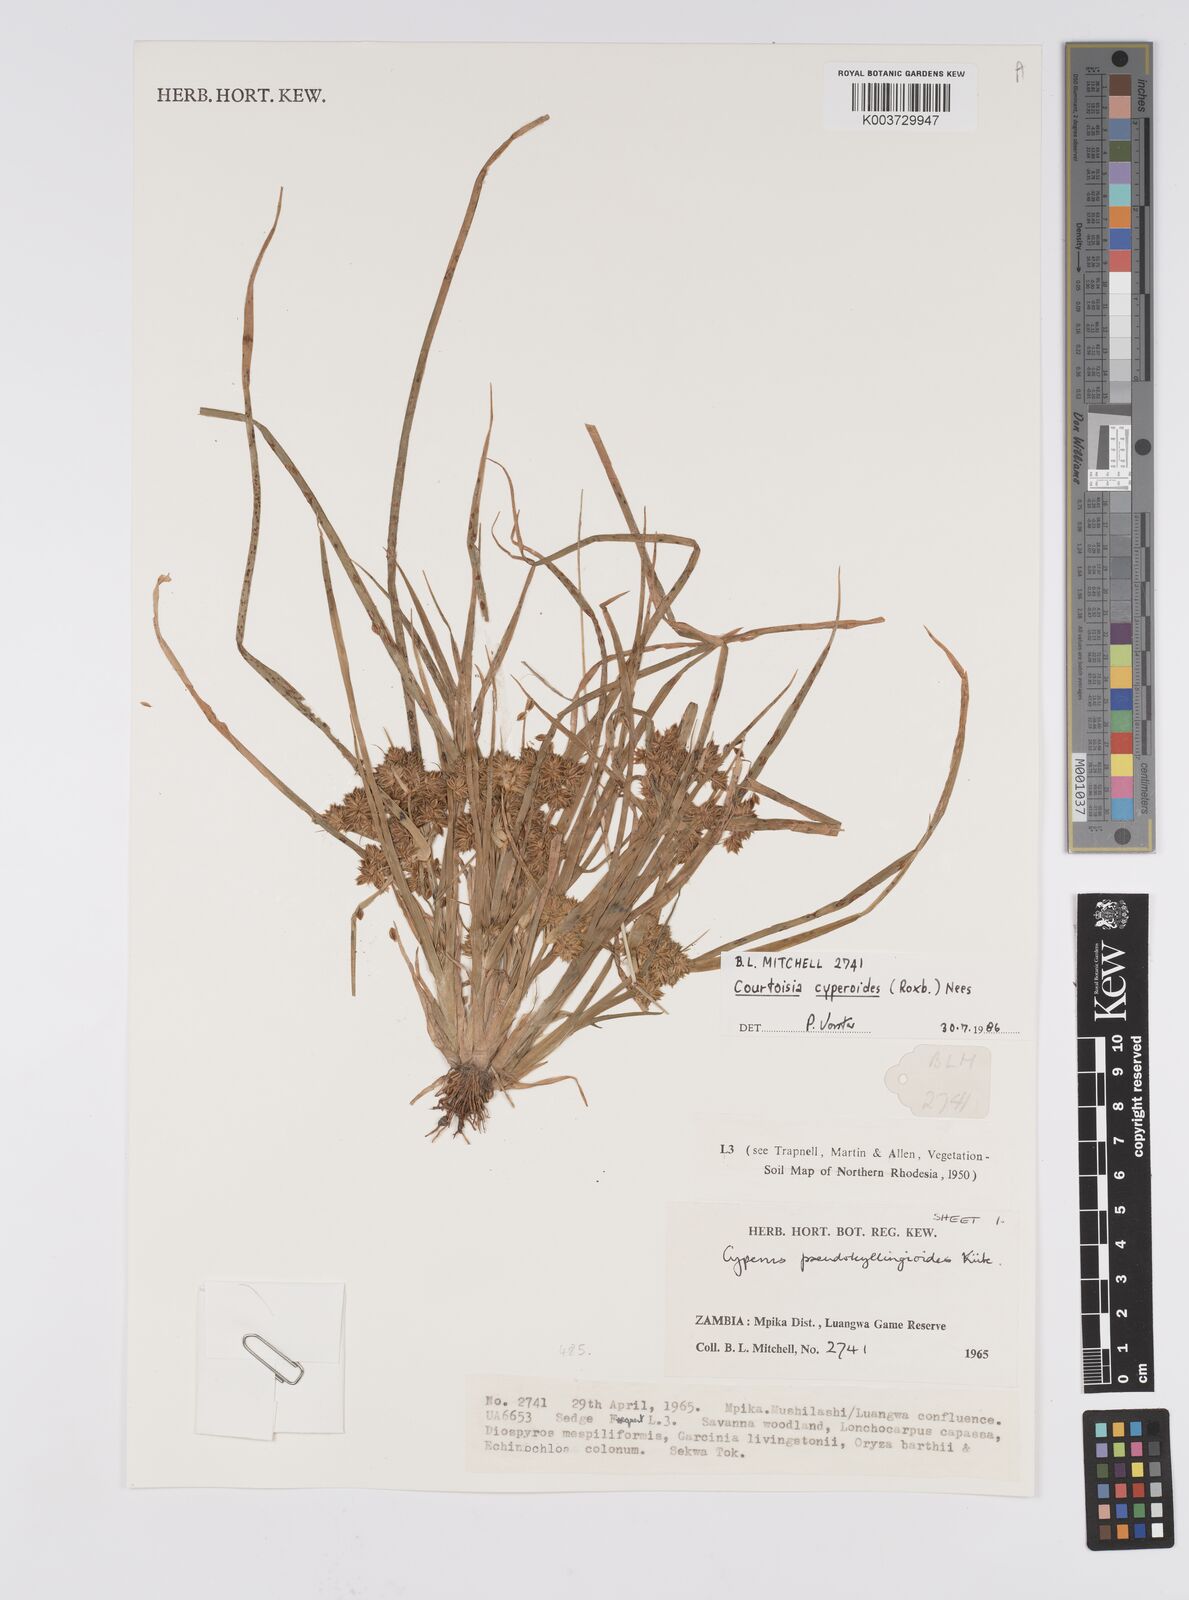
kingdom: Plantae
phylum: Tracheophyta
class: Liliopsida
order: Poales
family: Cyperaceae
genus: Cyperus
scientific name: Cyperus cyperoides
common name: Pacific island flat sedge
